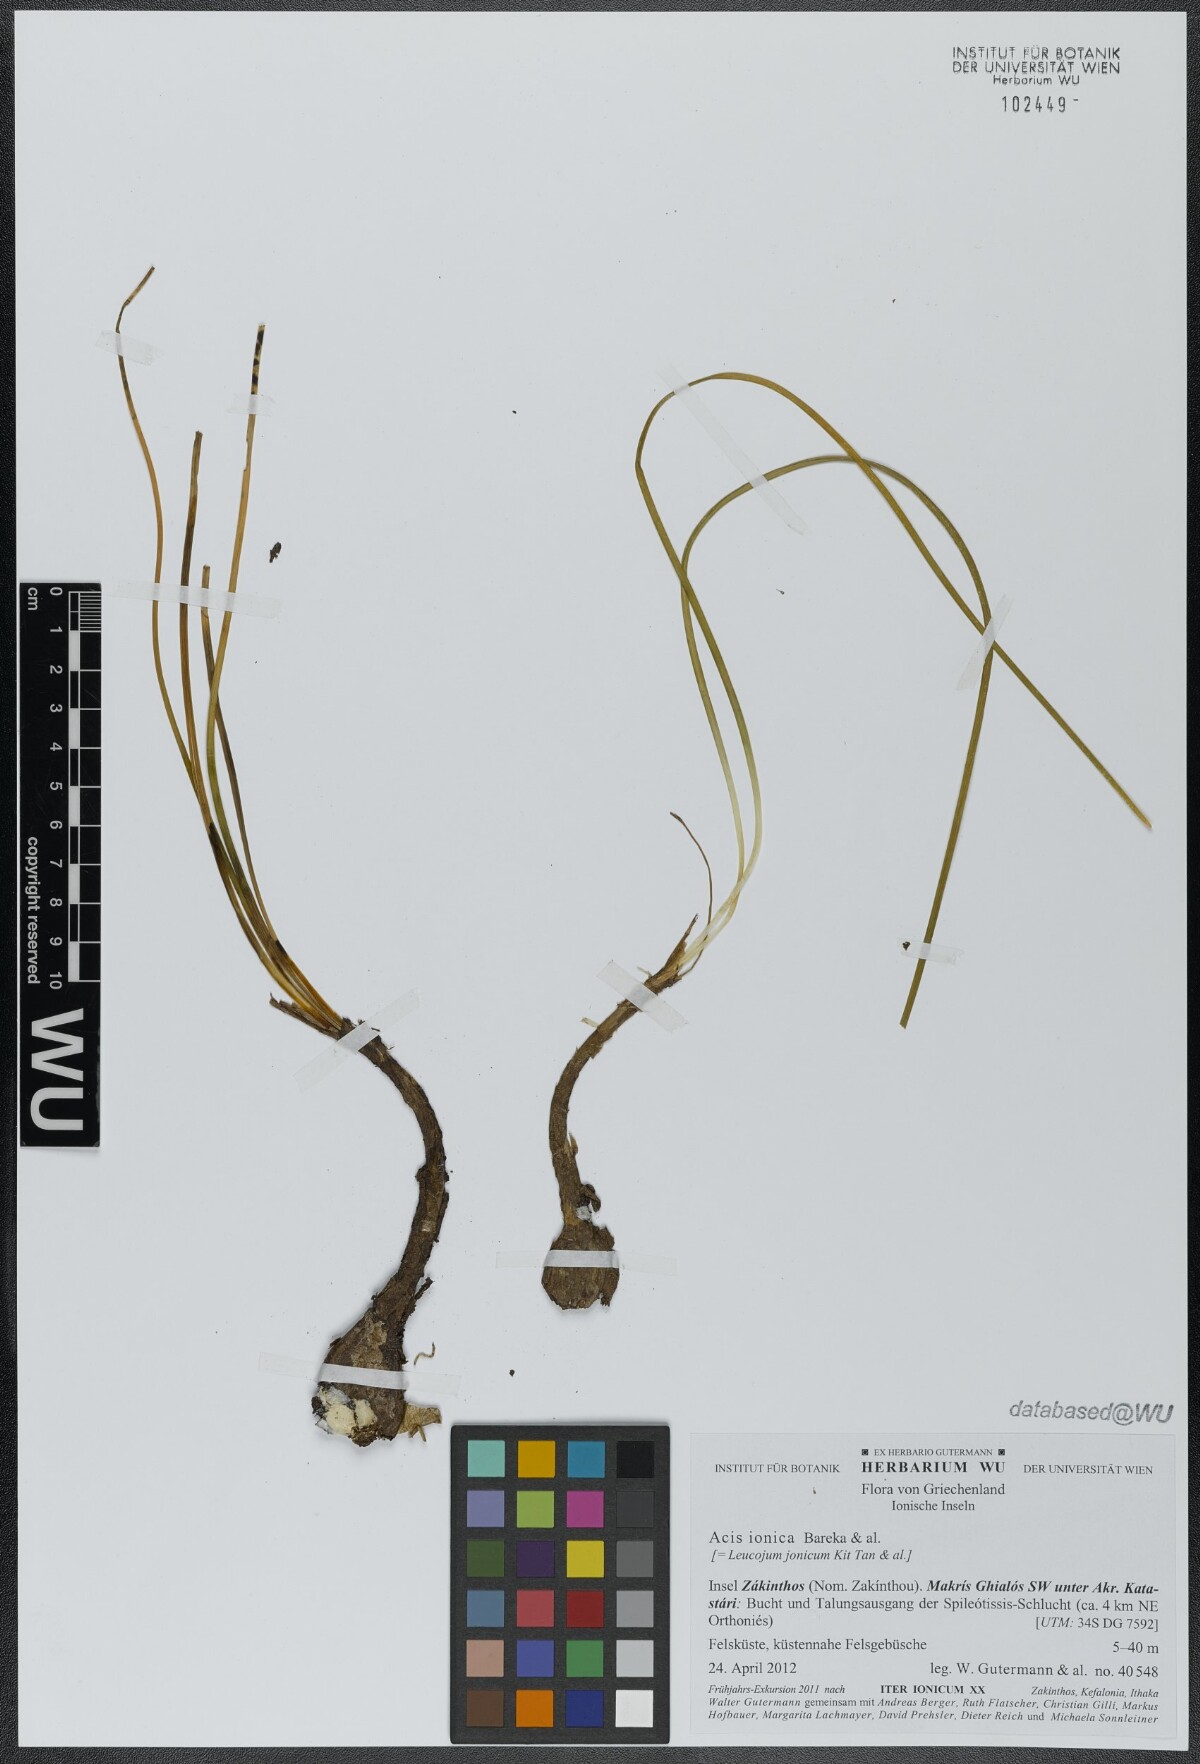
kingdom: Plantae
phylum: Tracheophyta
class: Liliopsida
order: Asparagales
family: Amaryllidaceae
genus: Acis
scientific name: Acis ionica
